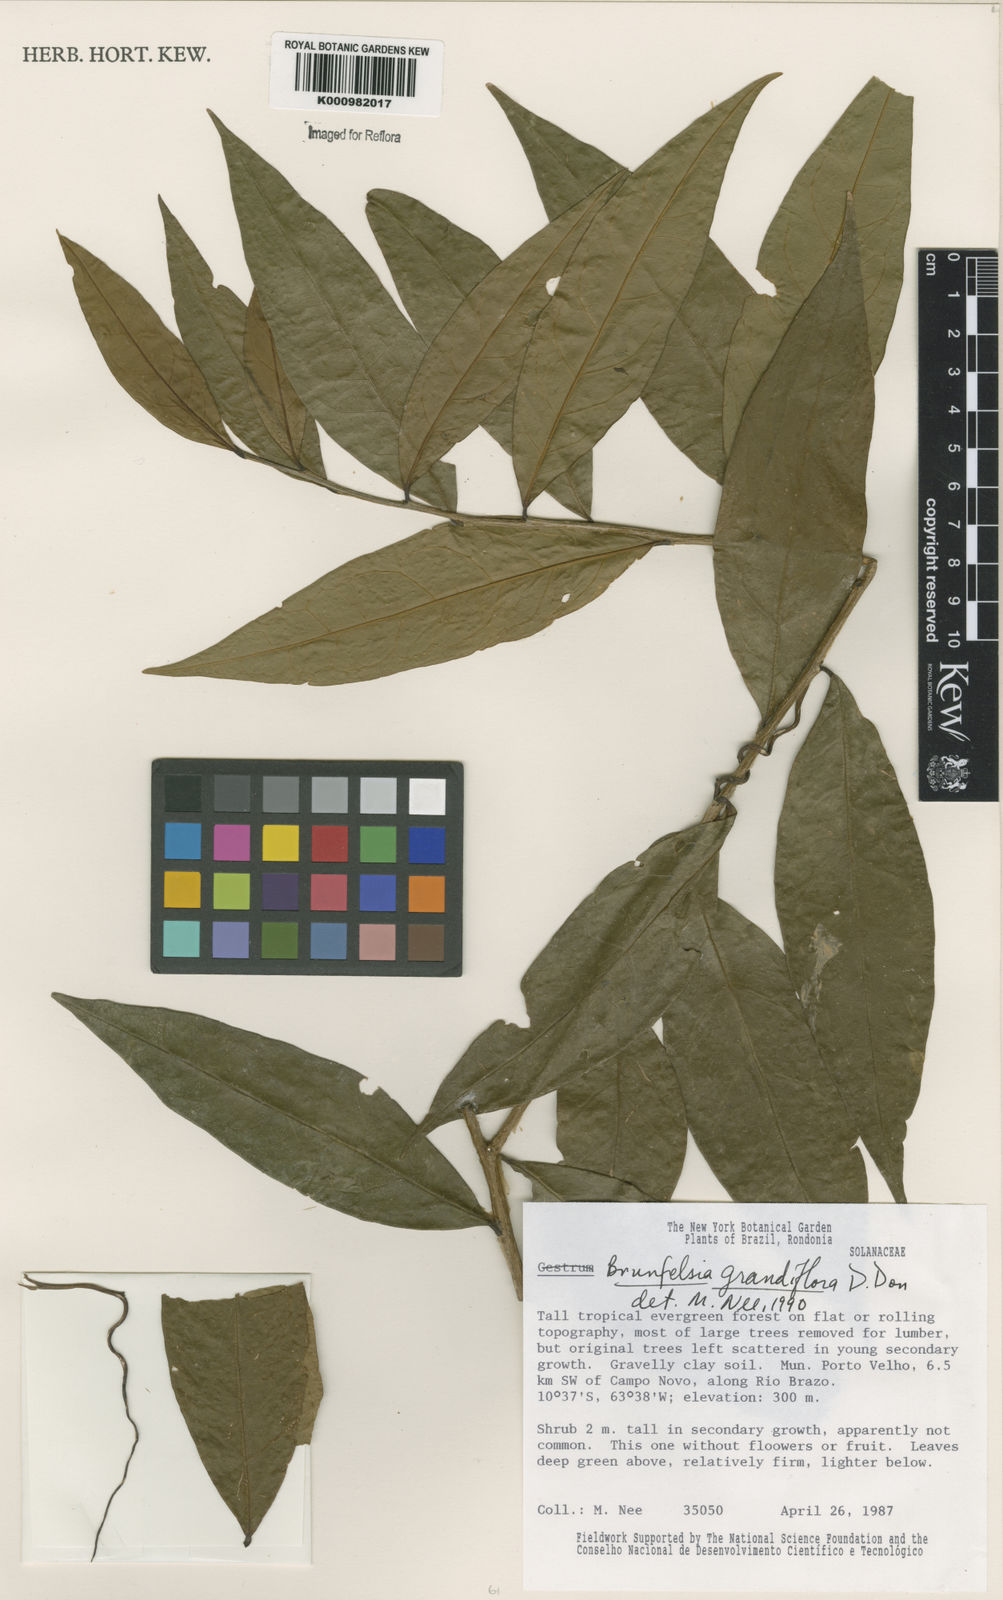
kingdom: Plantae
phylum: Tracheophyta
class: Magnoliopsida
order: Solanales
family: Solanaceae
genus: Brunfelsia
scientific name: Brunfelsia grandiflora
